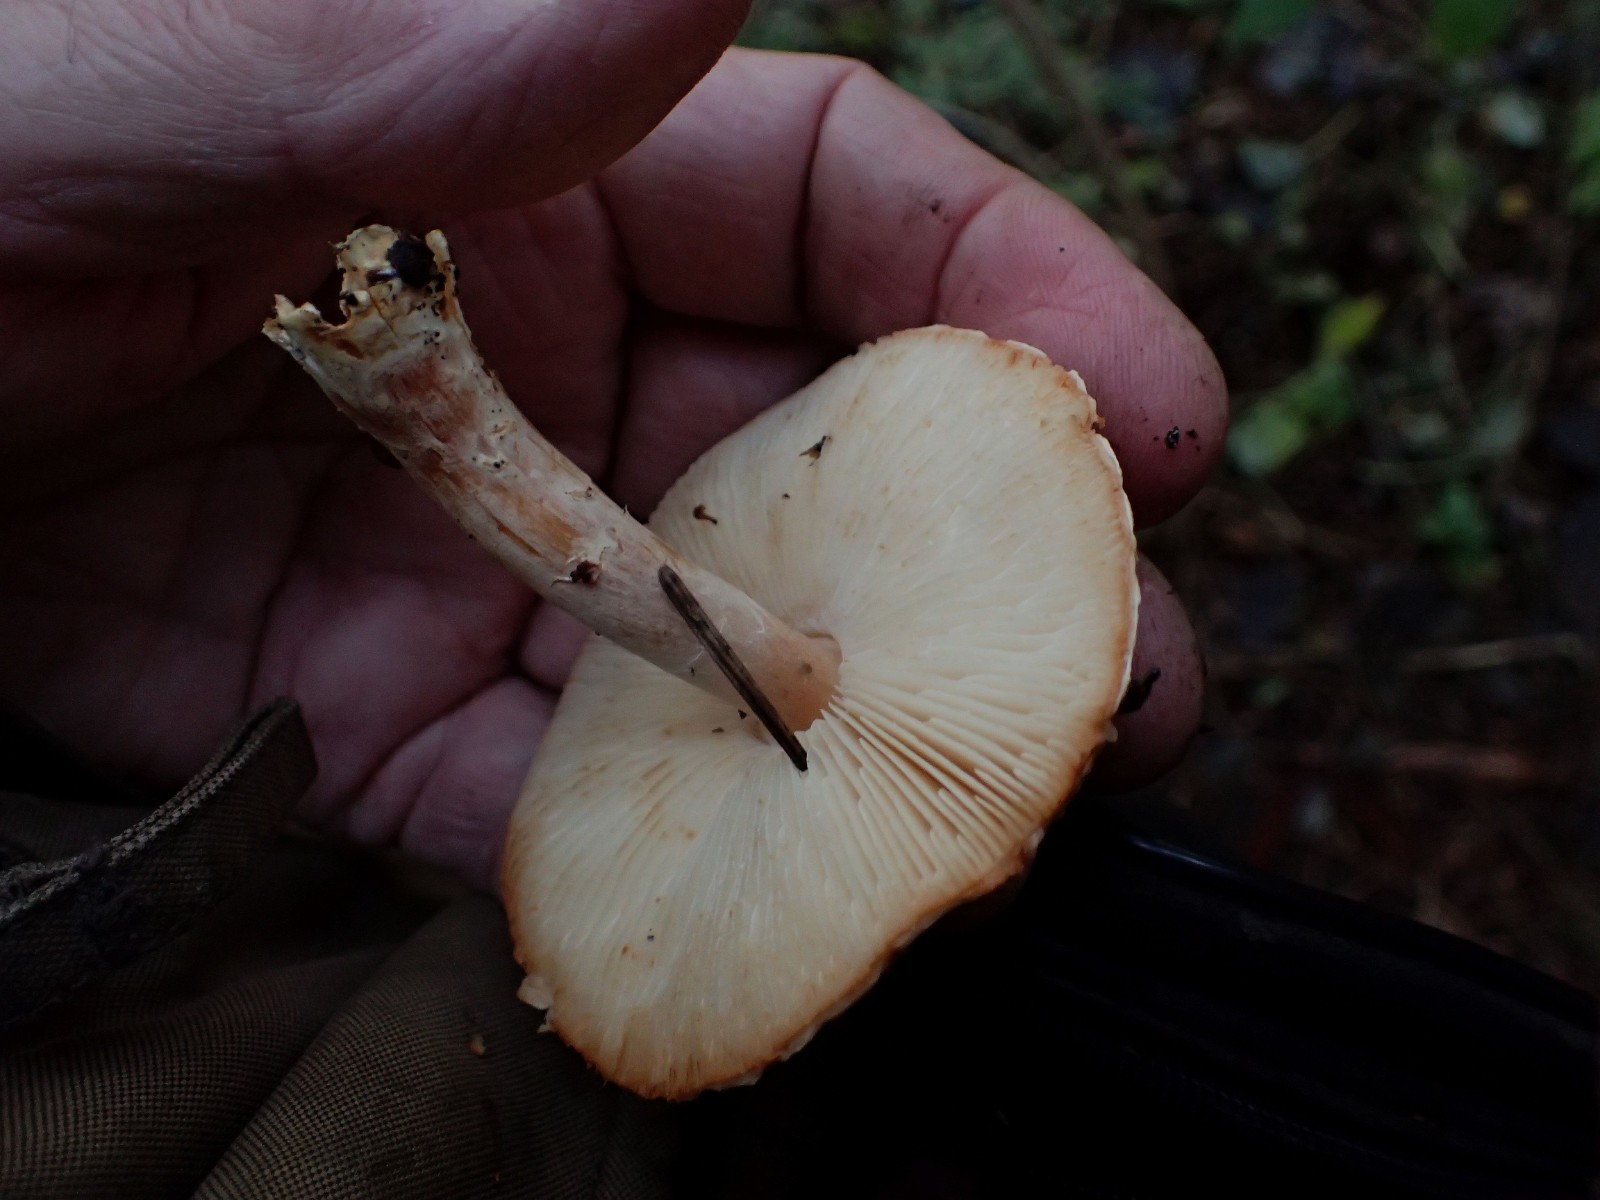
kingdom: Fungi
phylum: Basidiomycota
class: Agaricomycetes
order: Agaricales
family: Agaricaceae
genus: Lepiota
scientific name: Lepiota ochraceofulva
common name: sødtduftende parasolhat
